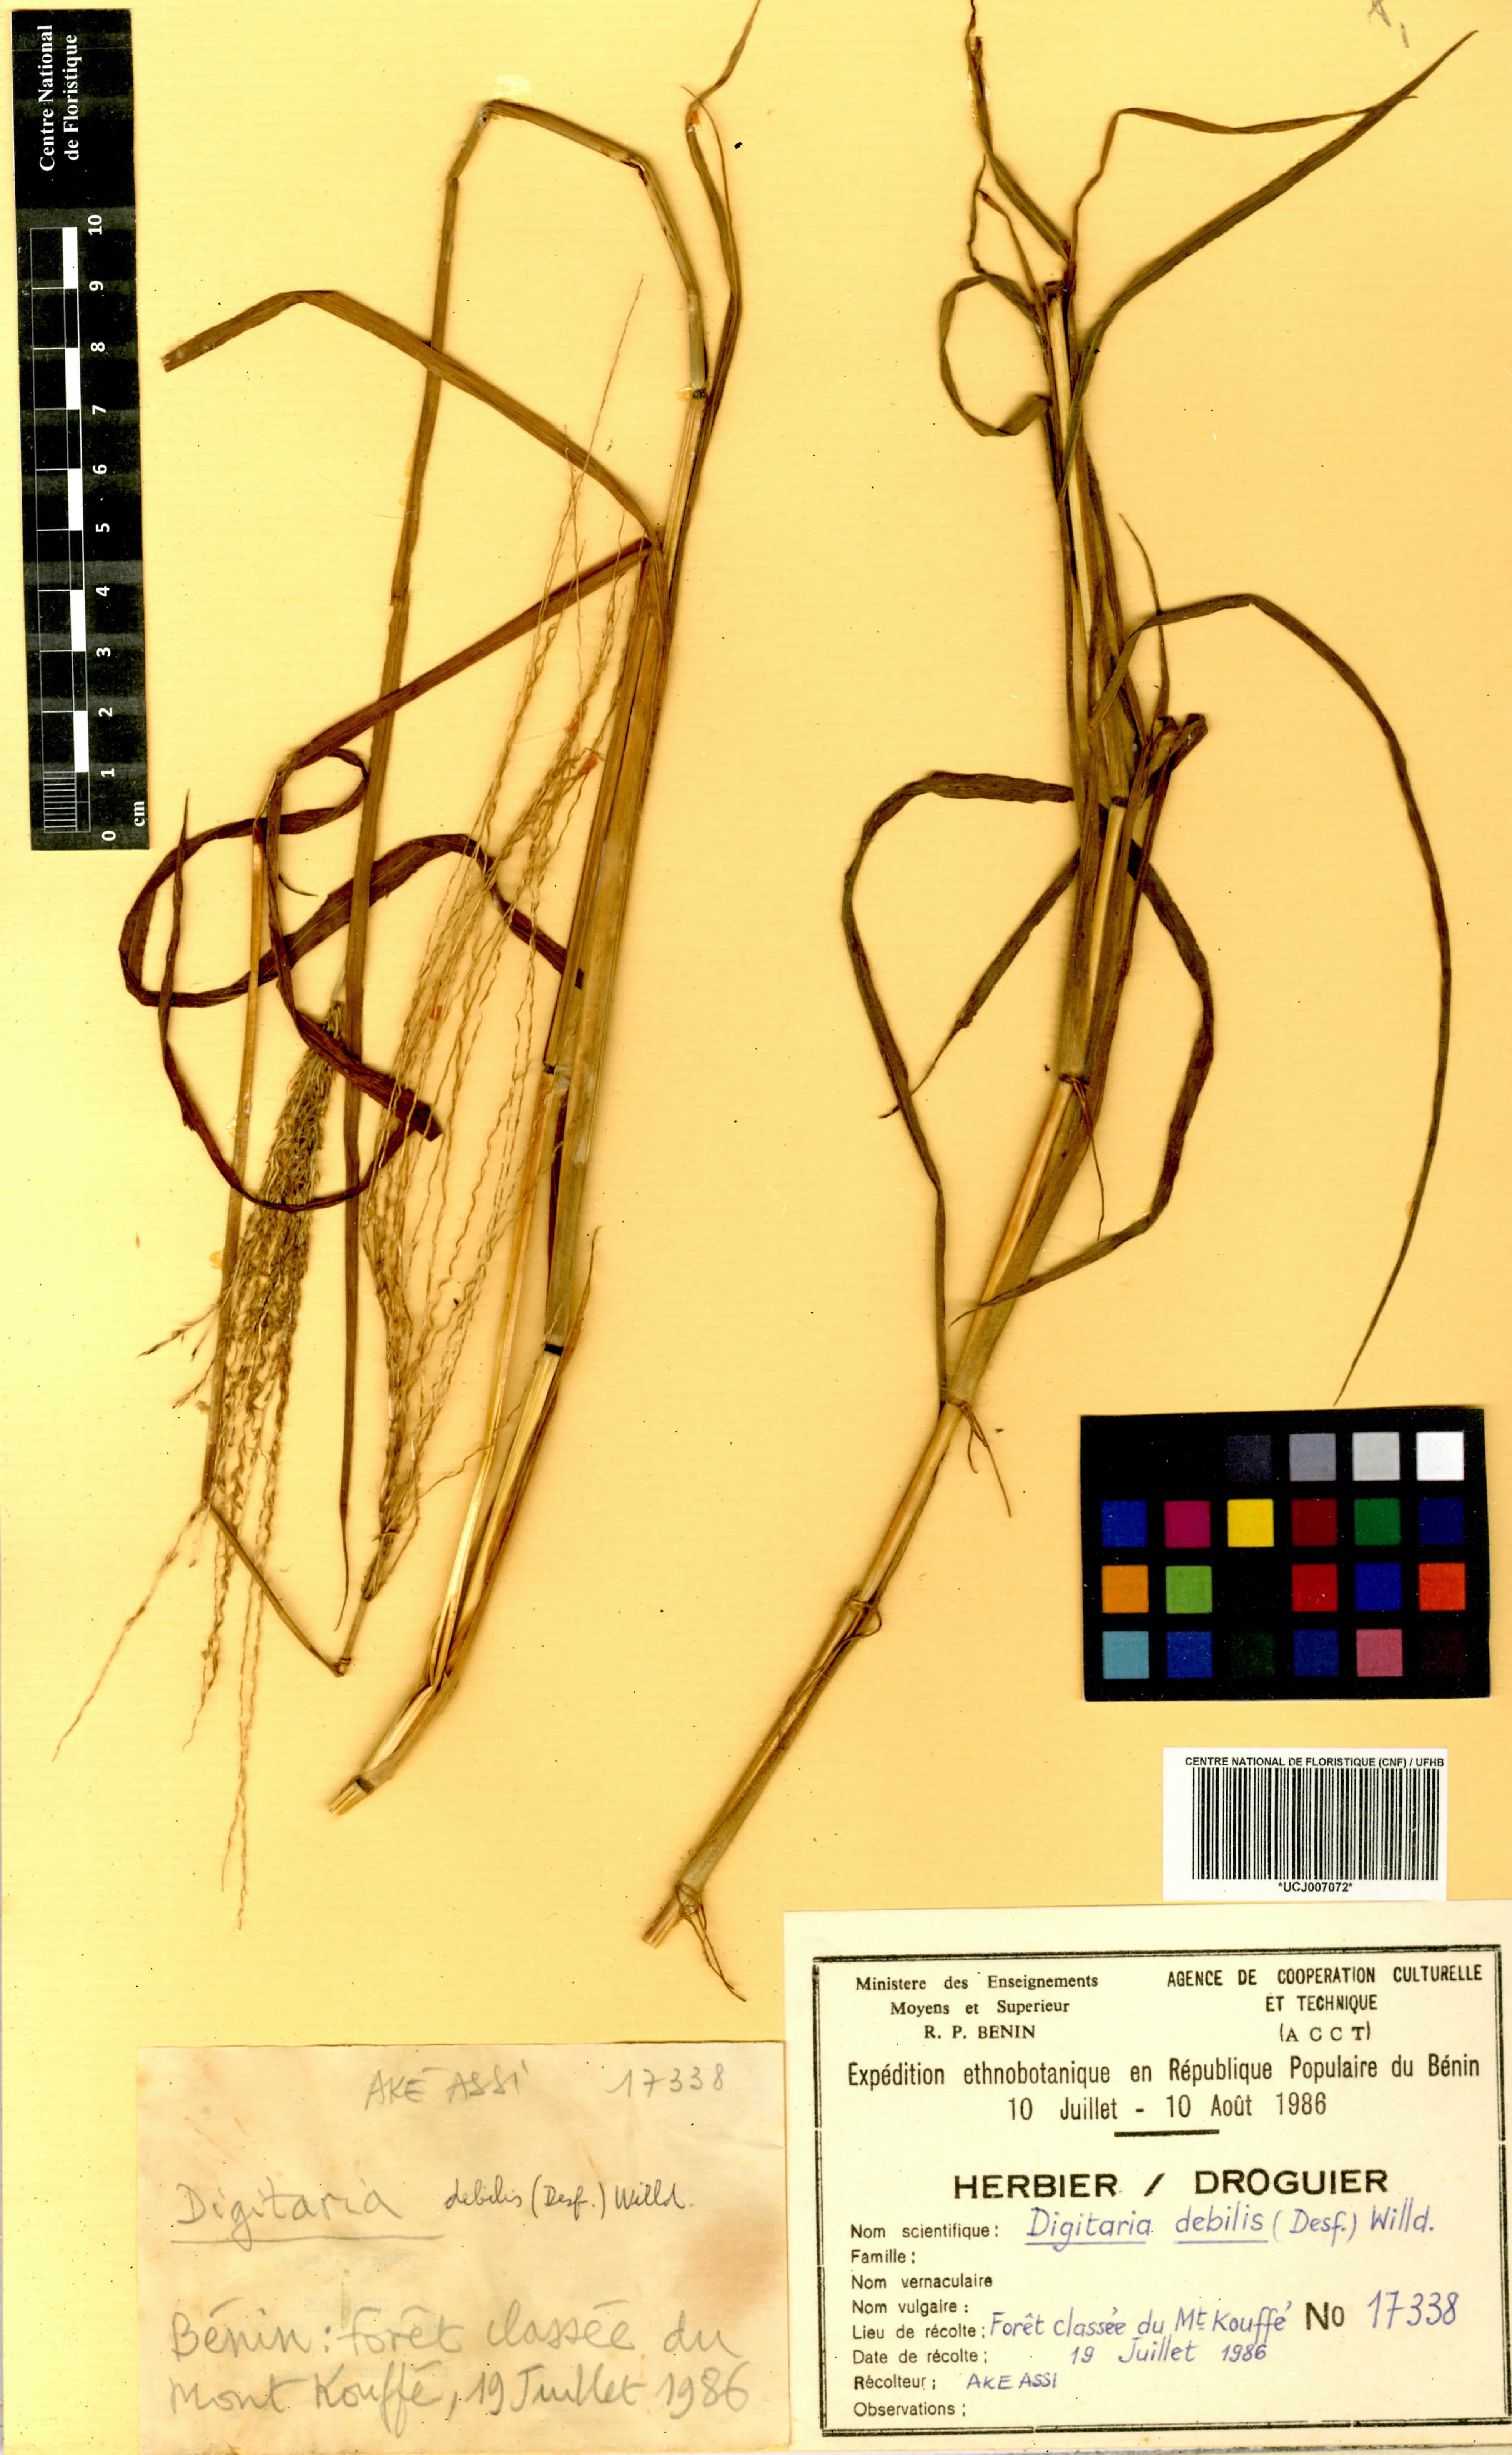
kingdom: Plantae
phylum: Tracheophyta
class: Liliopsida
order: Poales
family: Poaceae
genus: Digitaria
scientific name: Digitaria debilis
